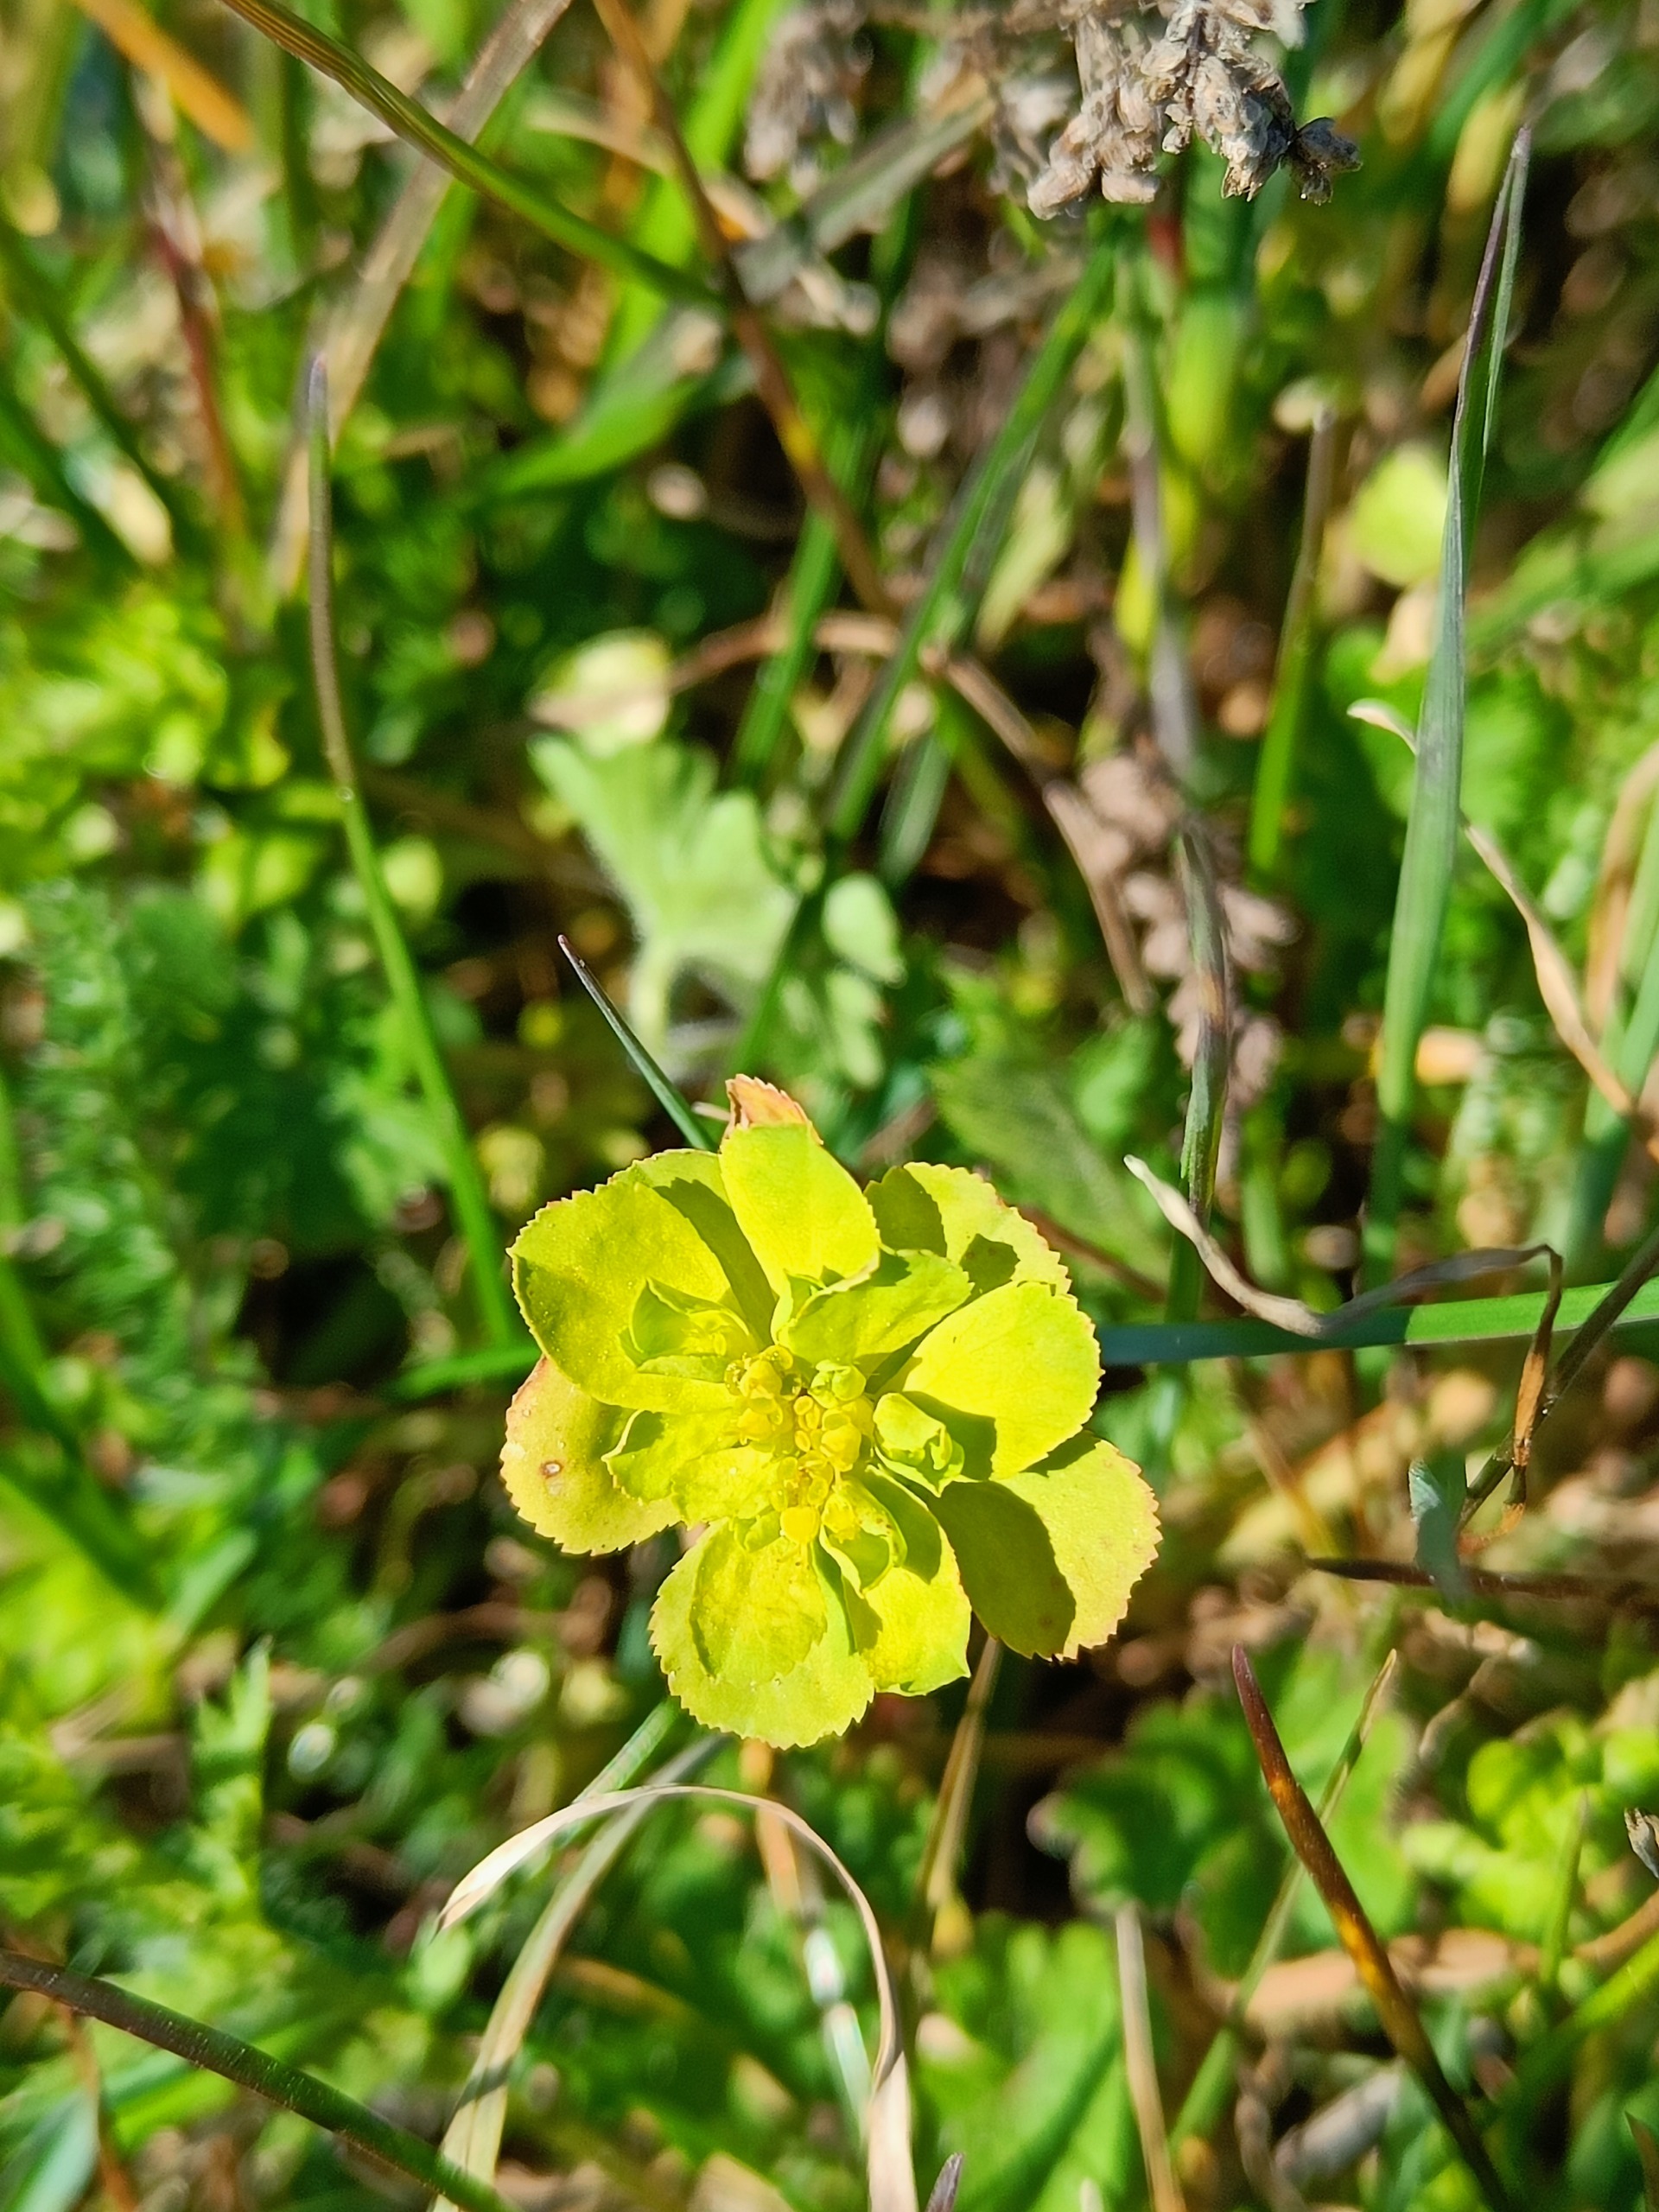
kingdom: Plantae
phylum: Tracheophyta
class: Magnoliopsida
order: Malpighiales
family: Euphorbiaceae
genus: Euphorbia
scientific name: Euphorbia helioscopia
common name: Skærm-vortemælk
